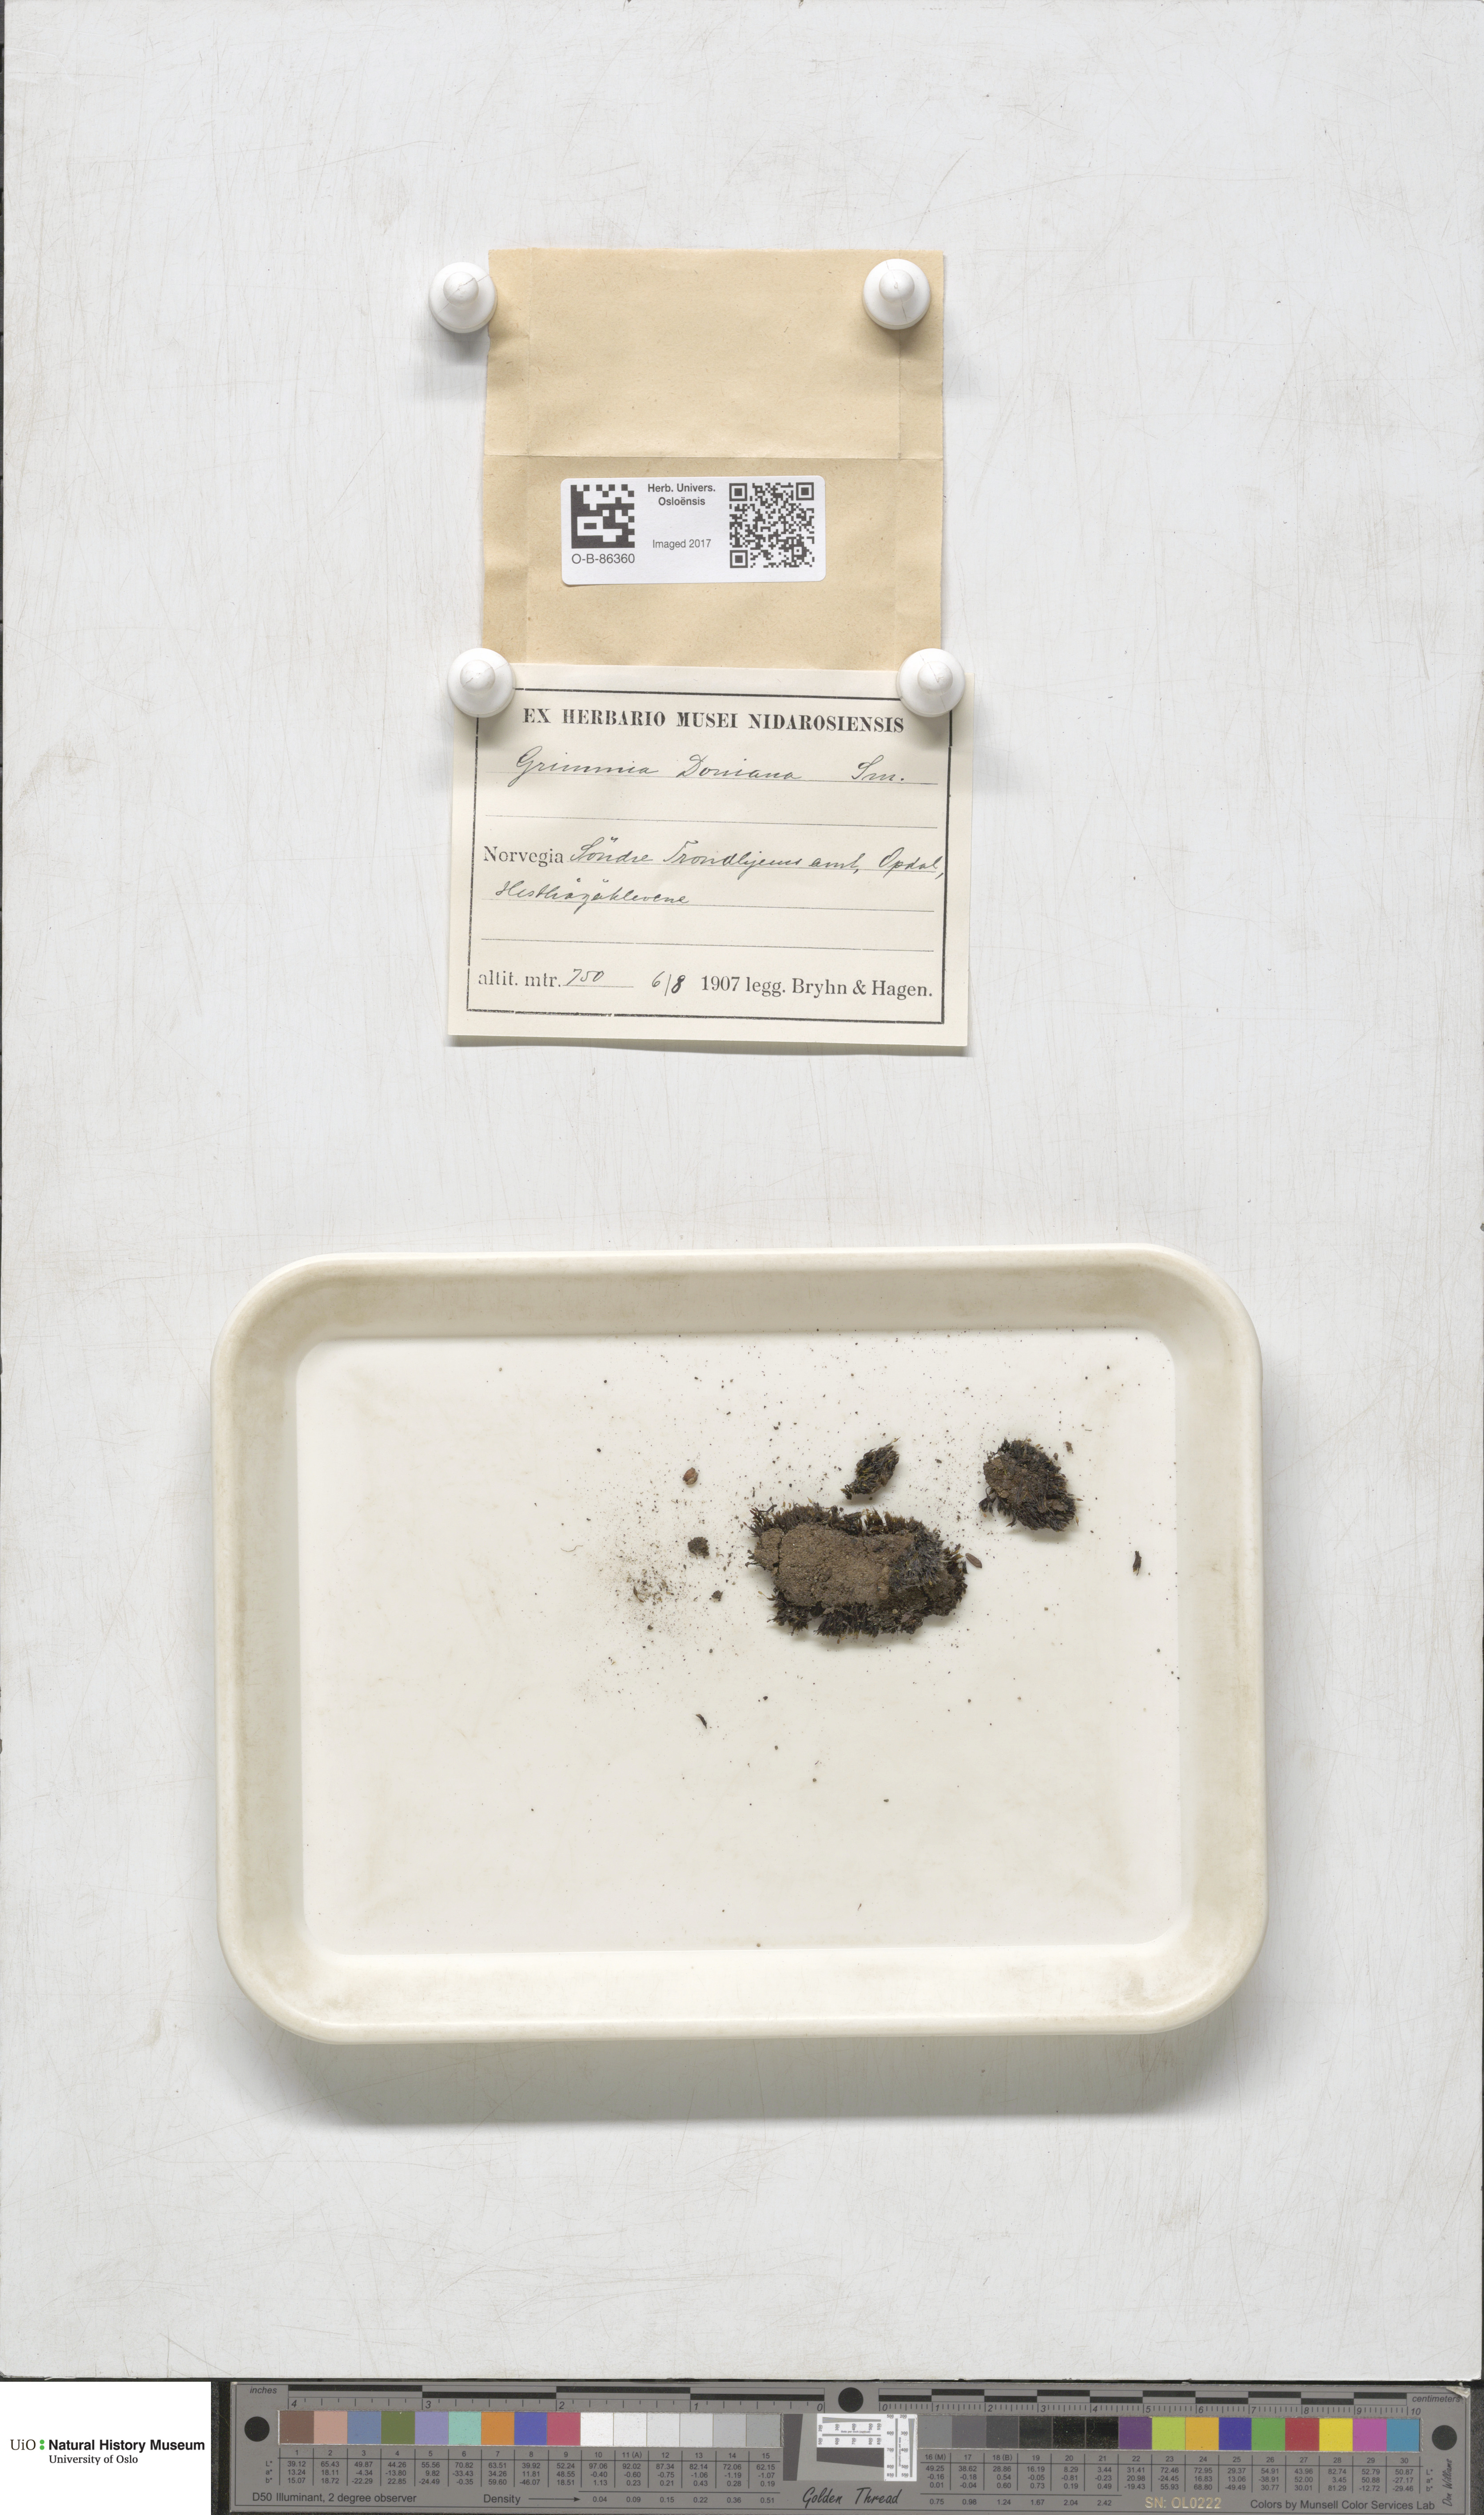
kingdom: Plantae
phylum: Bryophyta
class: Bryopsida
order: Grimmiales
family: Grimmiaceae
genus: Grimmia
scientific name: Grimmia donniana
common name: Donn's grimmia
